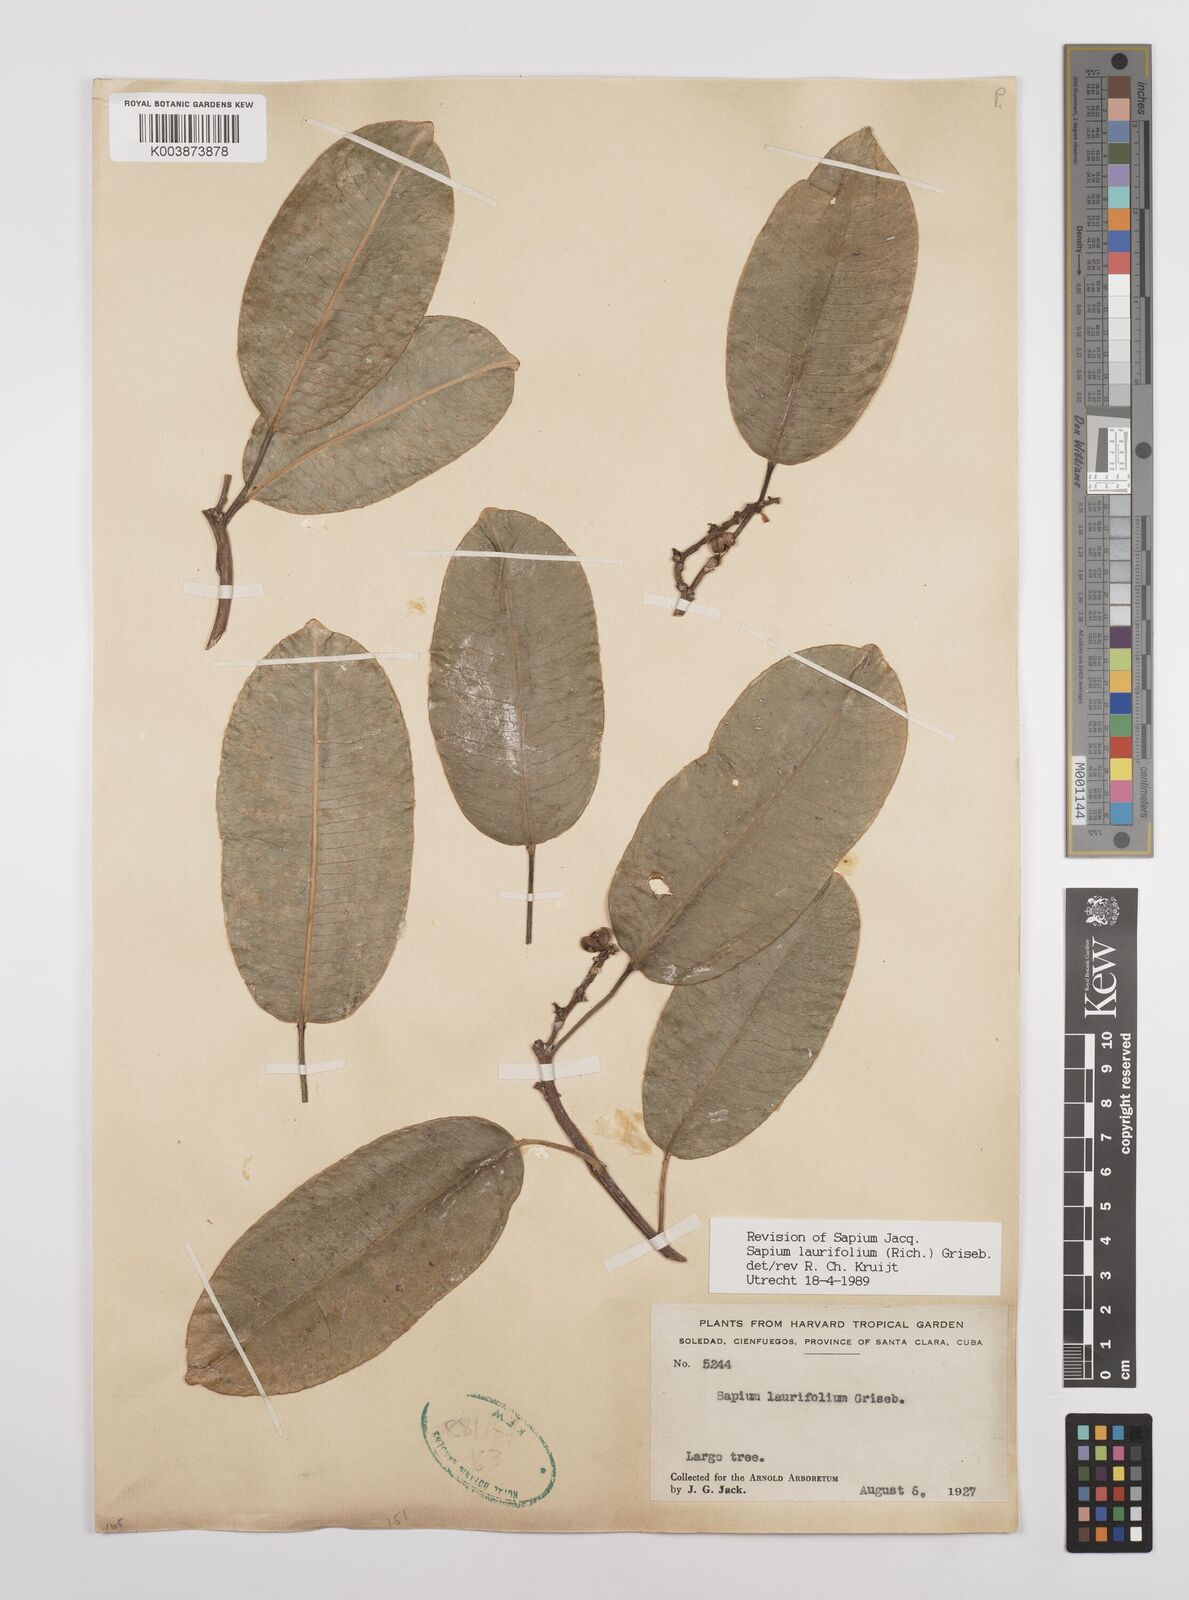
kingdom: Plantae
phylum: Tracheophyta
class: Magnoliopsida
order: Malpighiales
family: Euphorbiaceae
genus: Sapium
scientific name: Sapium glandulosum
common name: Milktree
